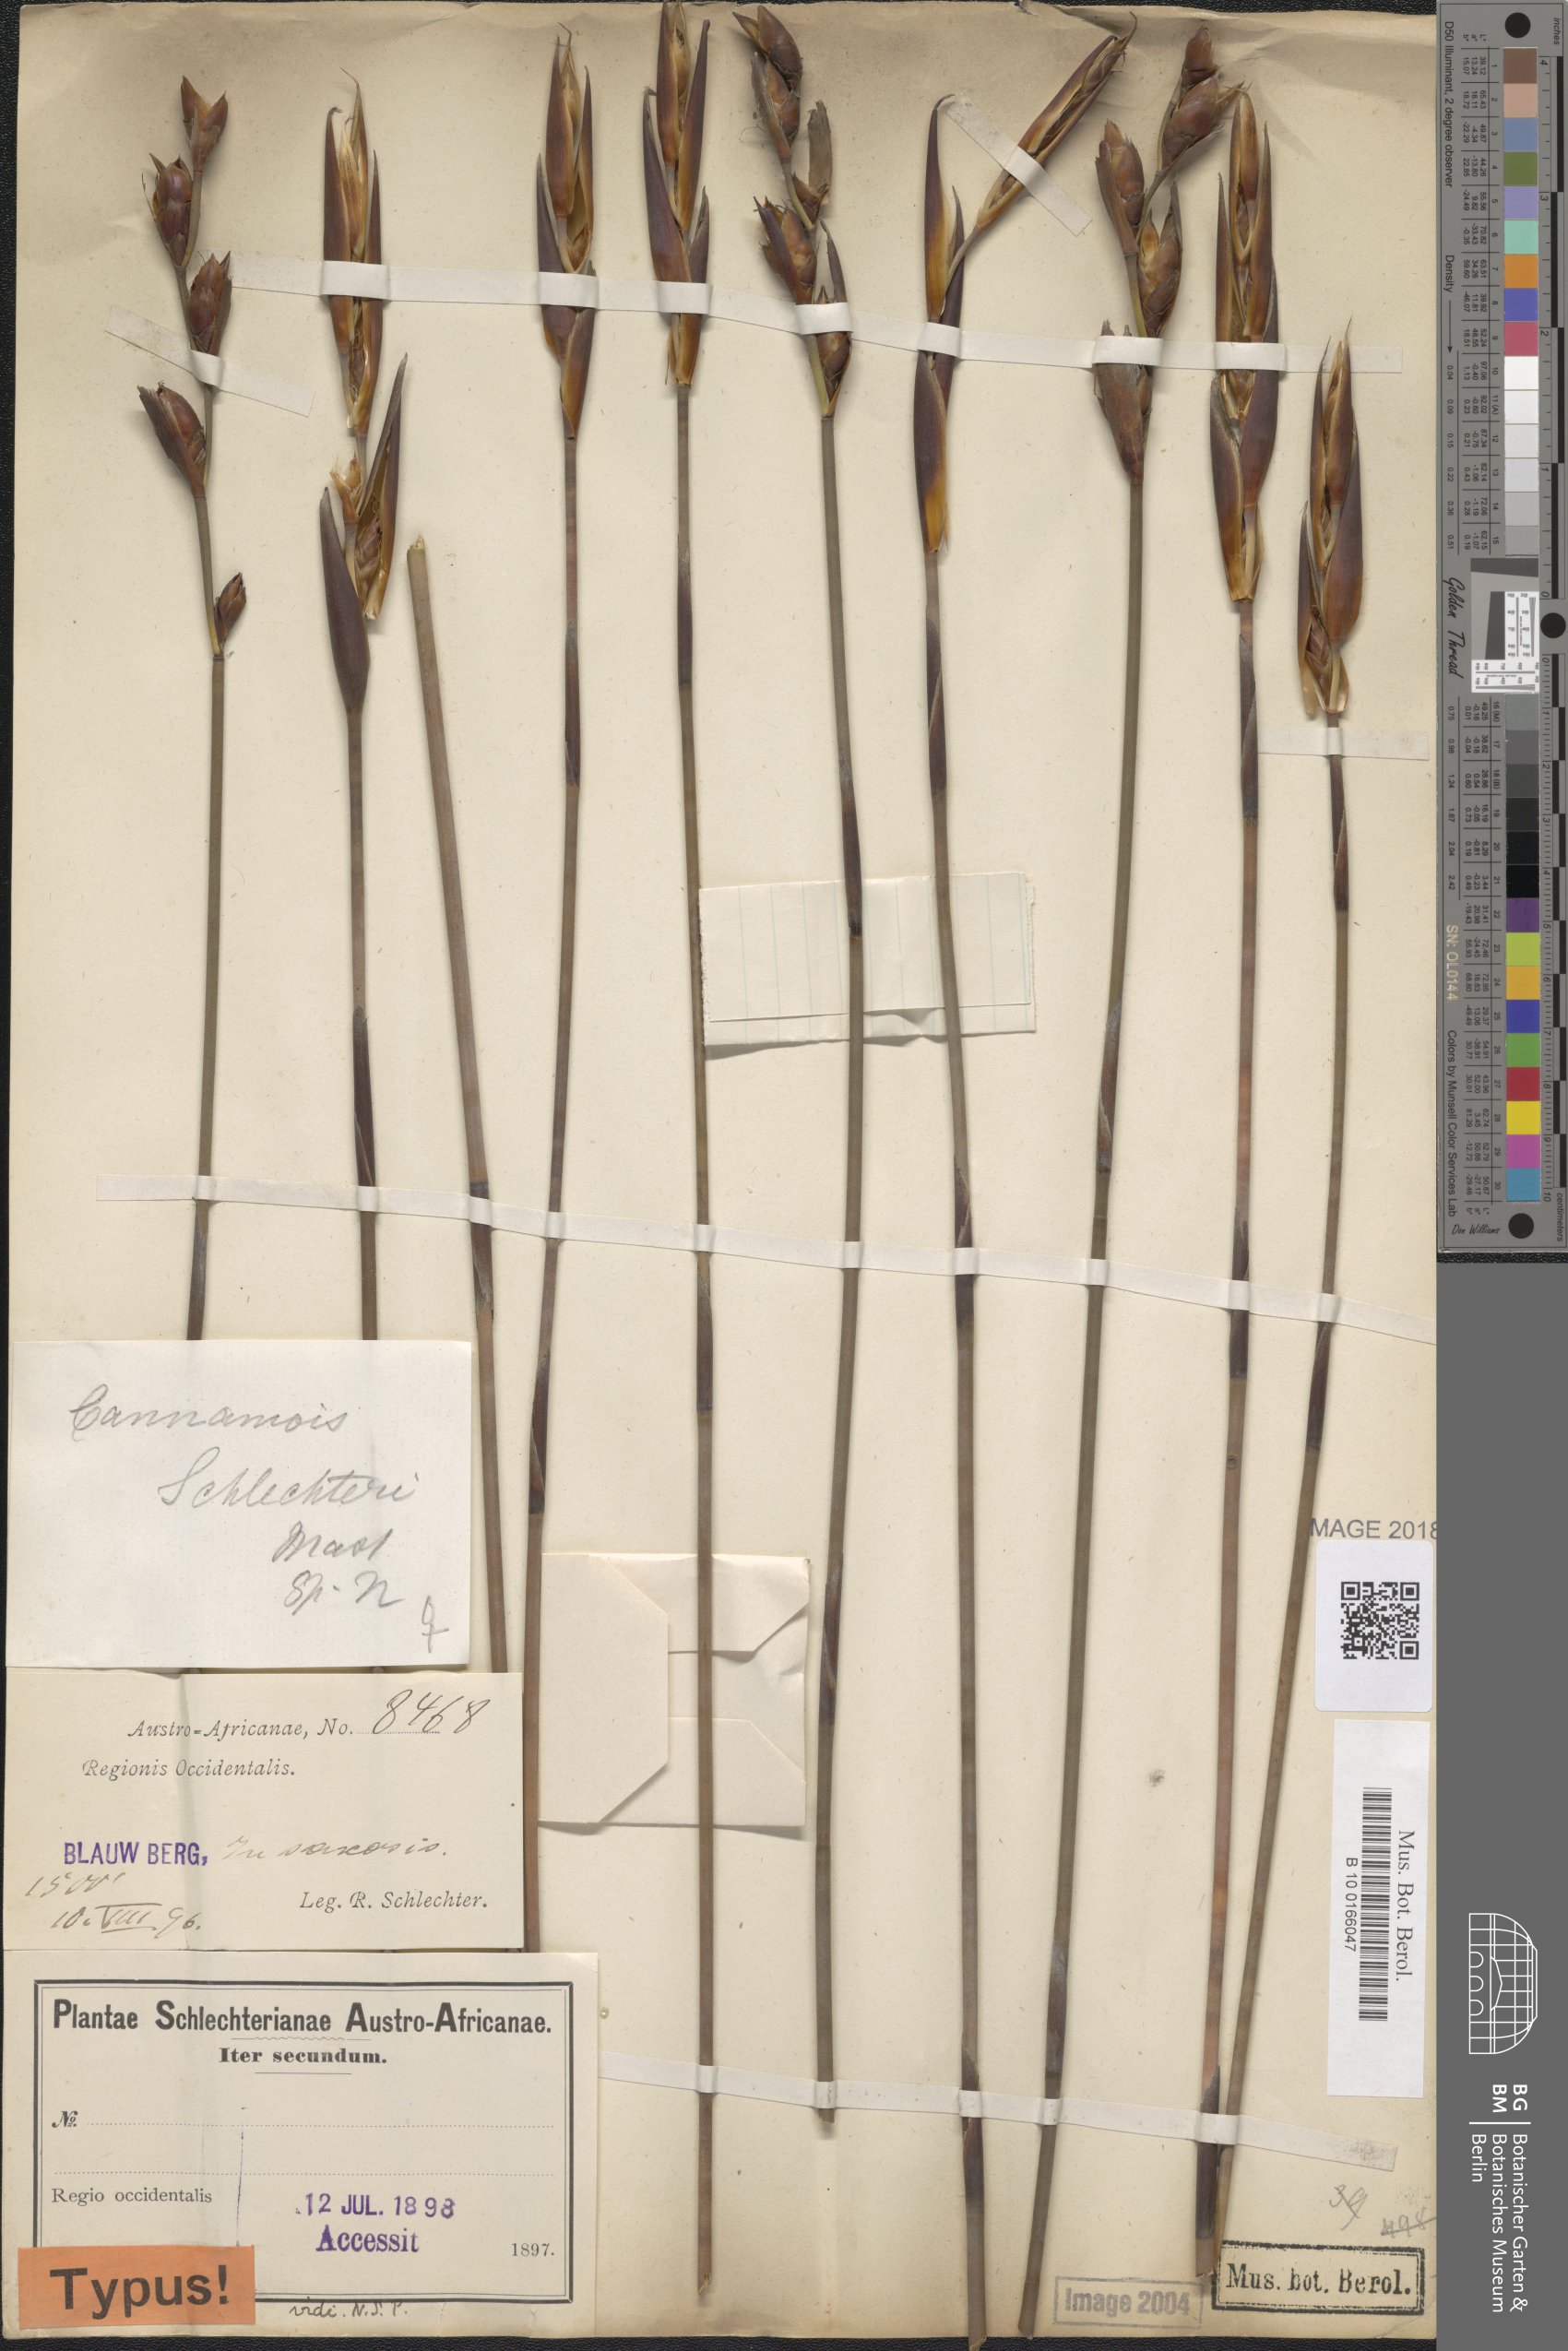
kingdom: Plantae
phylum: Tracheophyta
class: Liliopsida
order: Poales
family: Restionaceae
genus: Cannomois
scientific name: Cannomois parviflora
